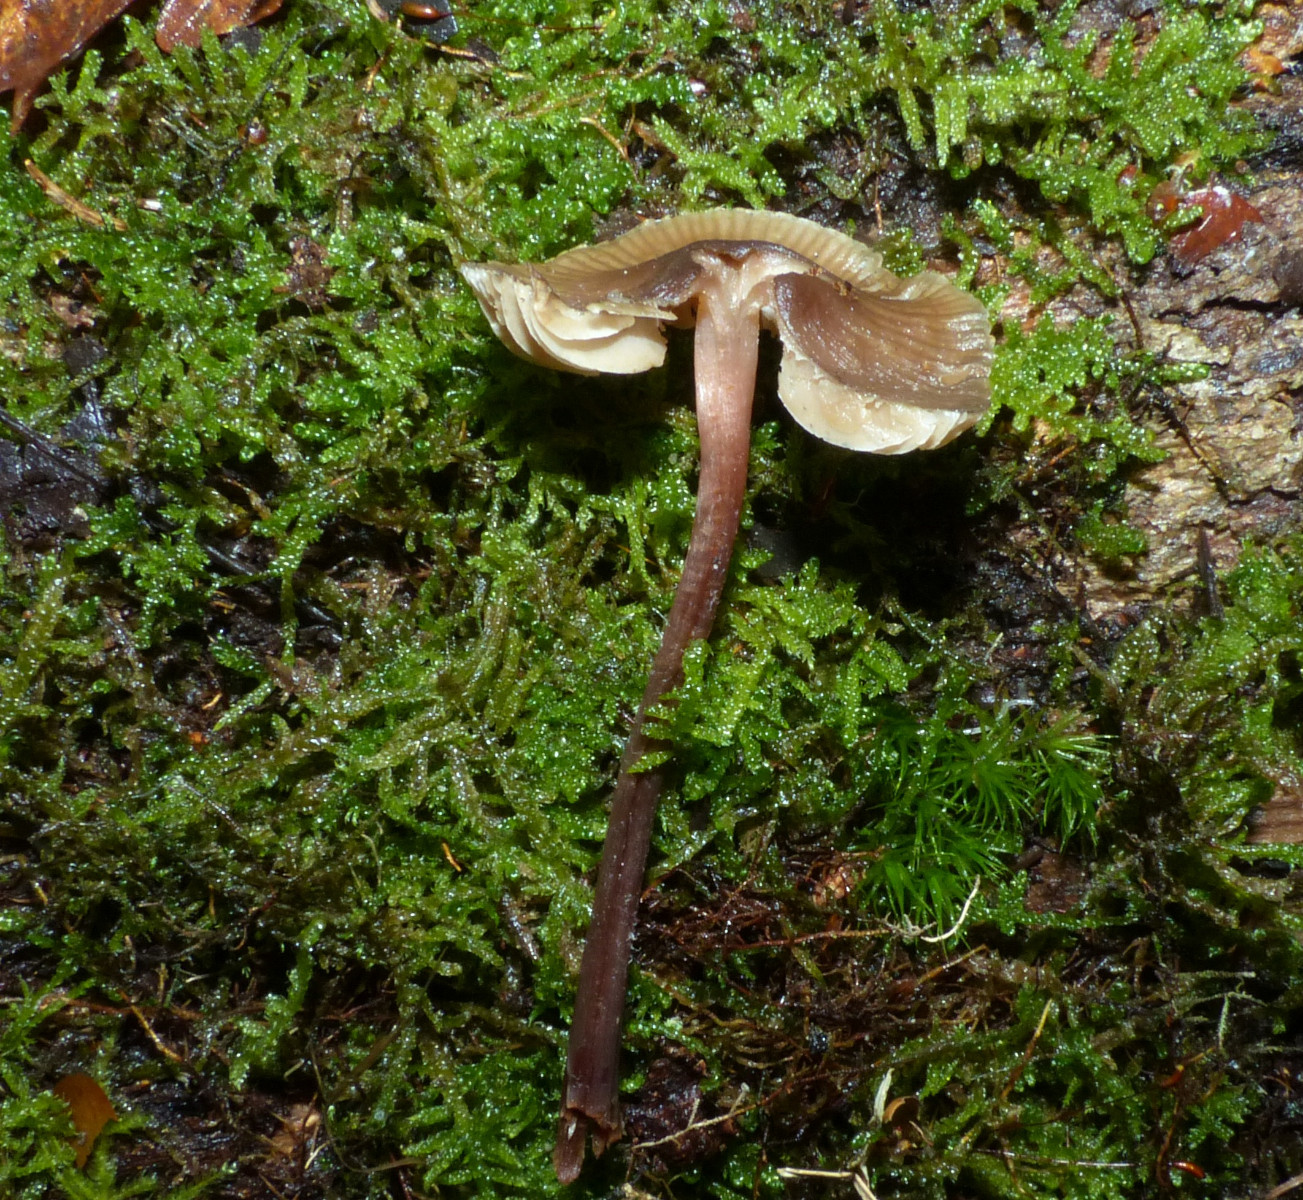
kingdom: Fungi
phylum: Basidiomycota
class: Agaricomycetes
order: Agaricales
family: Mycenaceae
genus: Mycena
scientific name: Mycena
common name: huesvamp
